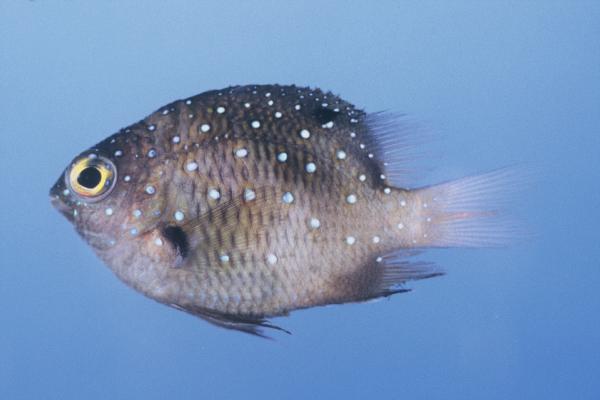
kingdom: Animalia
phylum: Chordata
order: Perciformes
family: Pomacentridae
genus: Plectroglyphidodon
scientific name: Plectroglyphidodon lacrymatus
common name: Jewel damsel
